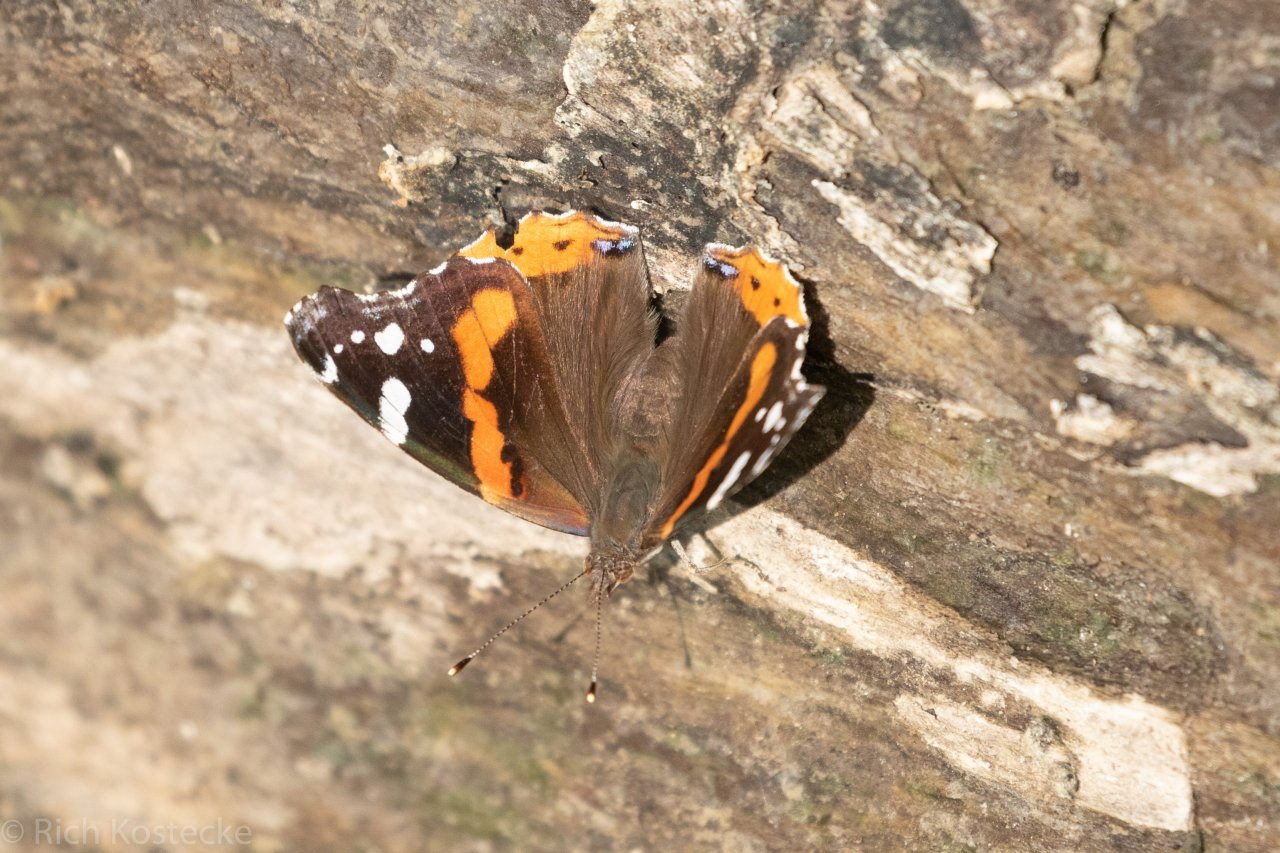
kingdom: Animalia
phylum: Arthropoda
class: Insecta
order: Lepidoptera
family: Nymphalidae
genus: Vanessa
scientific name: Vanessa atalanta
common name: Red Admiral
